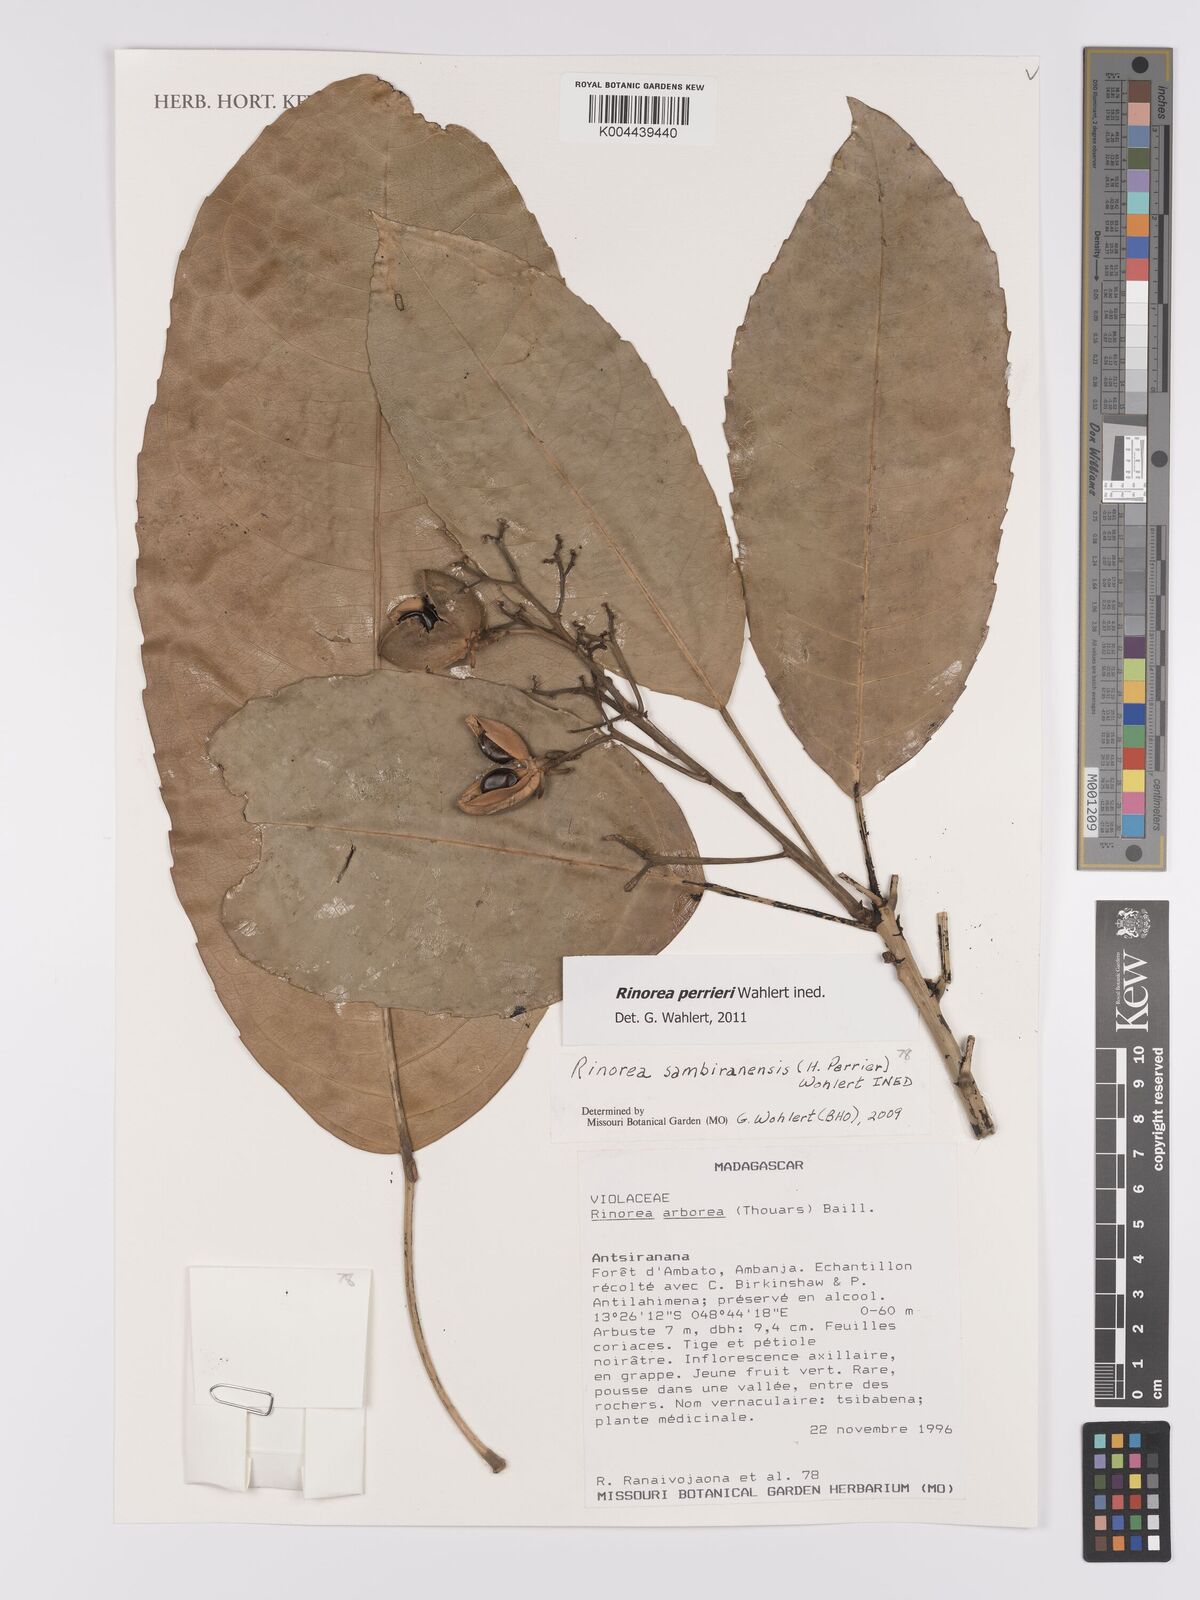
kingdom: Plantae
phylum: Tracheophyta
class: Magnoliopsida
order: Malpighiales
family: Violaceae
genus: Rinorea
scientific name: Rinorea
